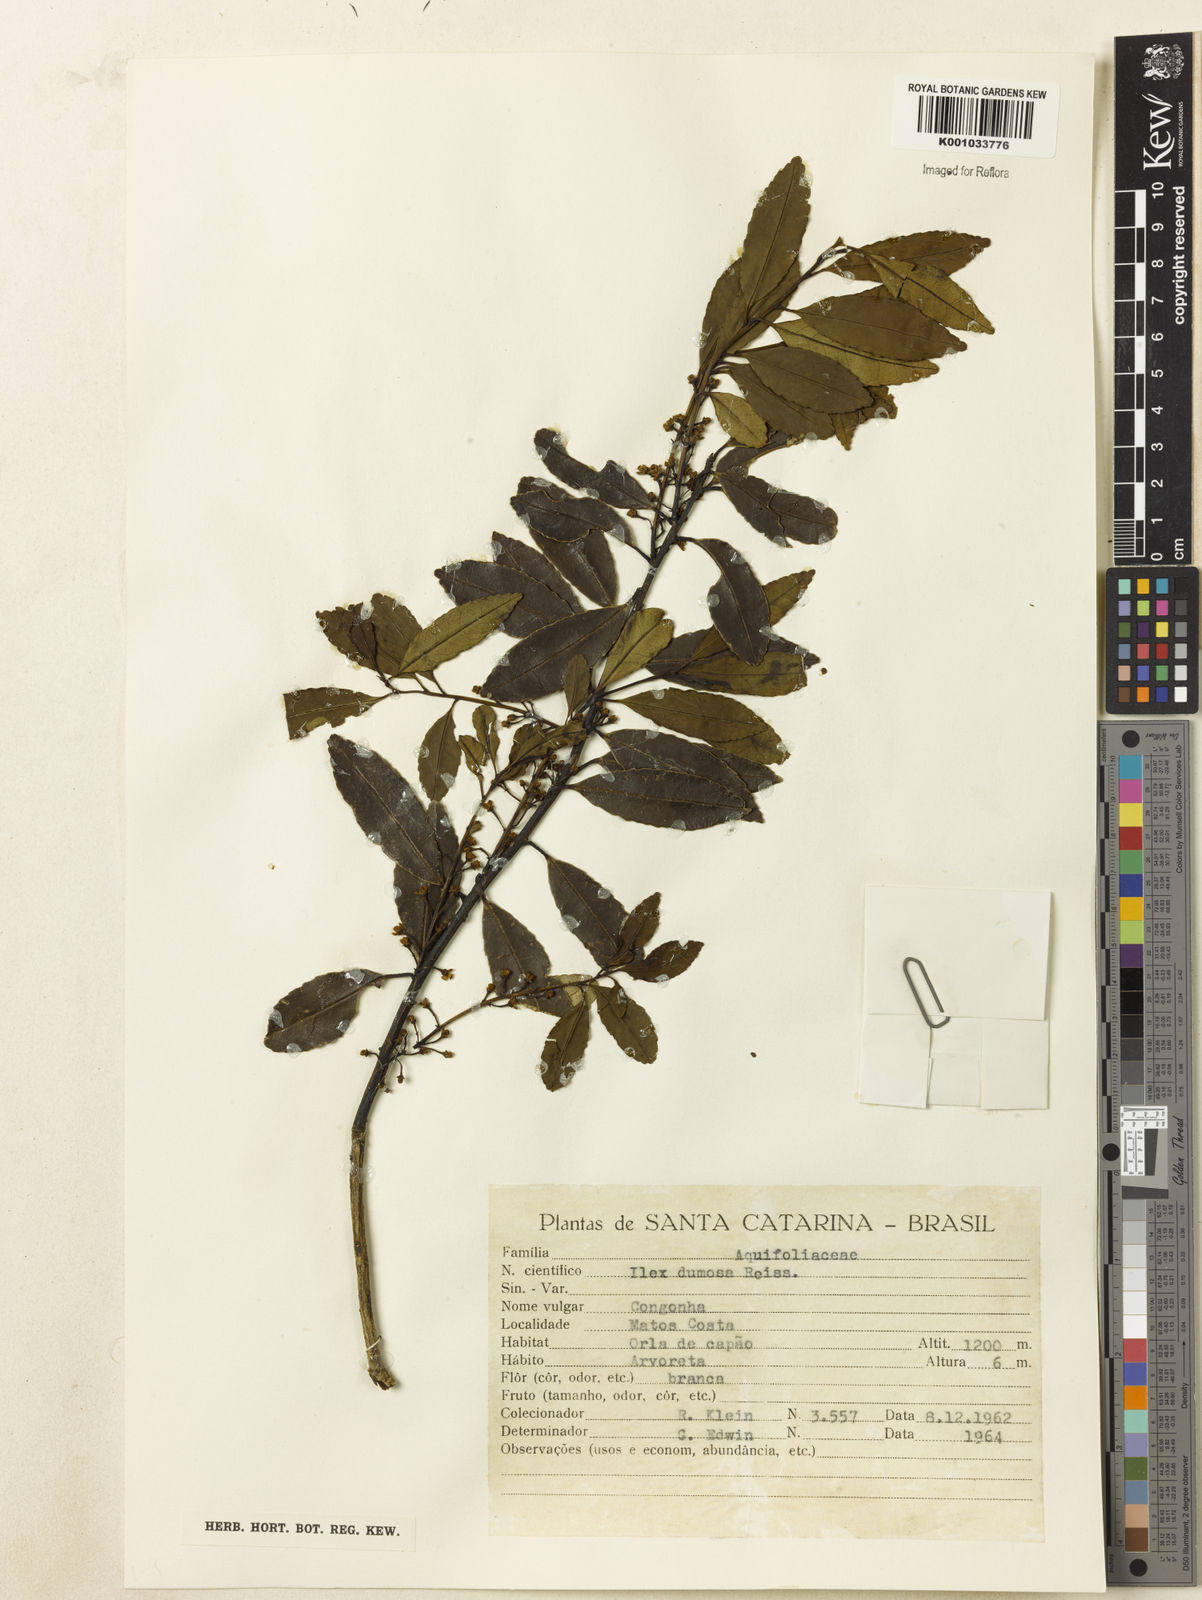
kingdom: Plantae
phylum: Tracheophyta
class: Magnoliopsida
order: Aquifoliales
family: Aquifoliaceae
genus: Ilex
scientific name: Ilex dumosa
